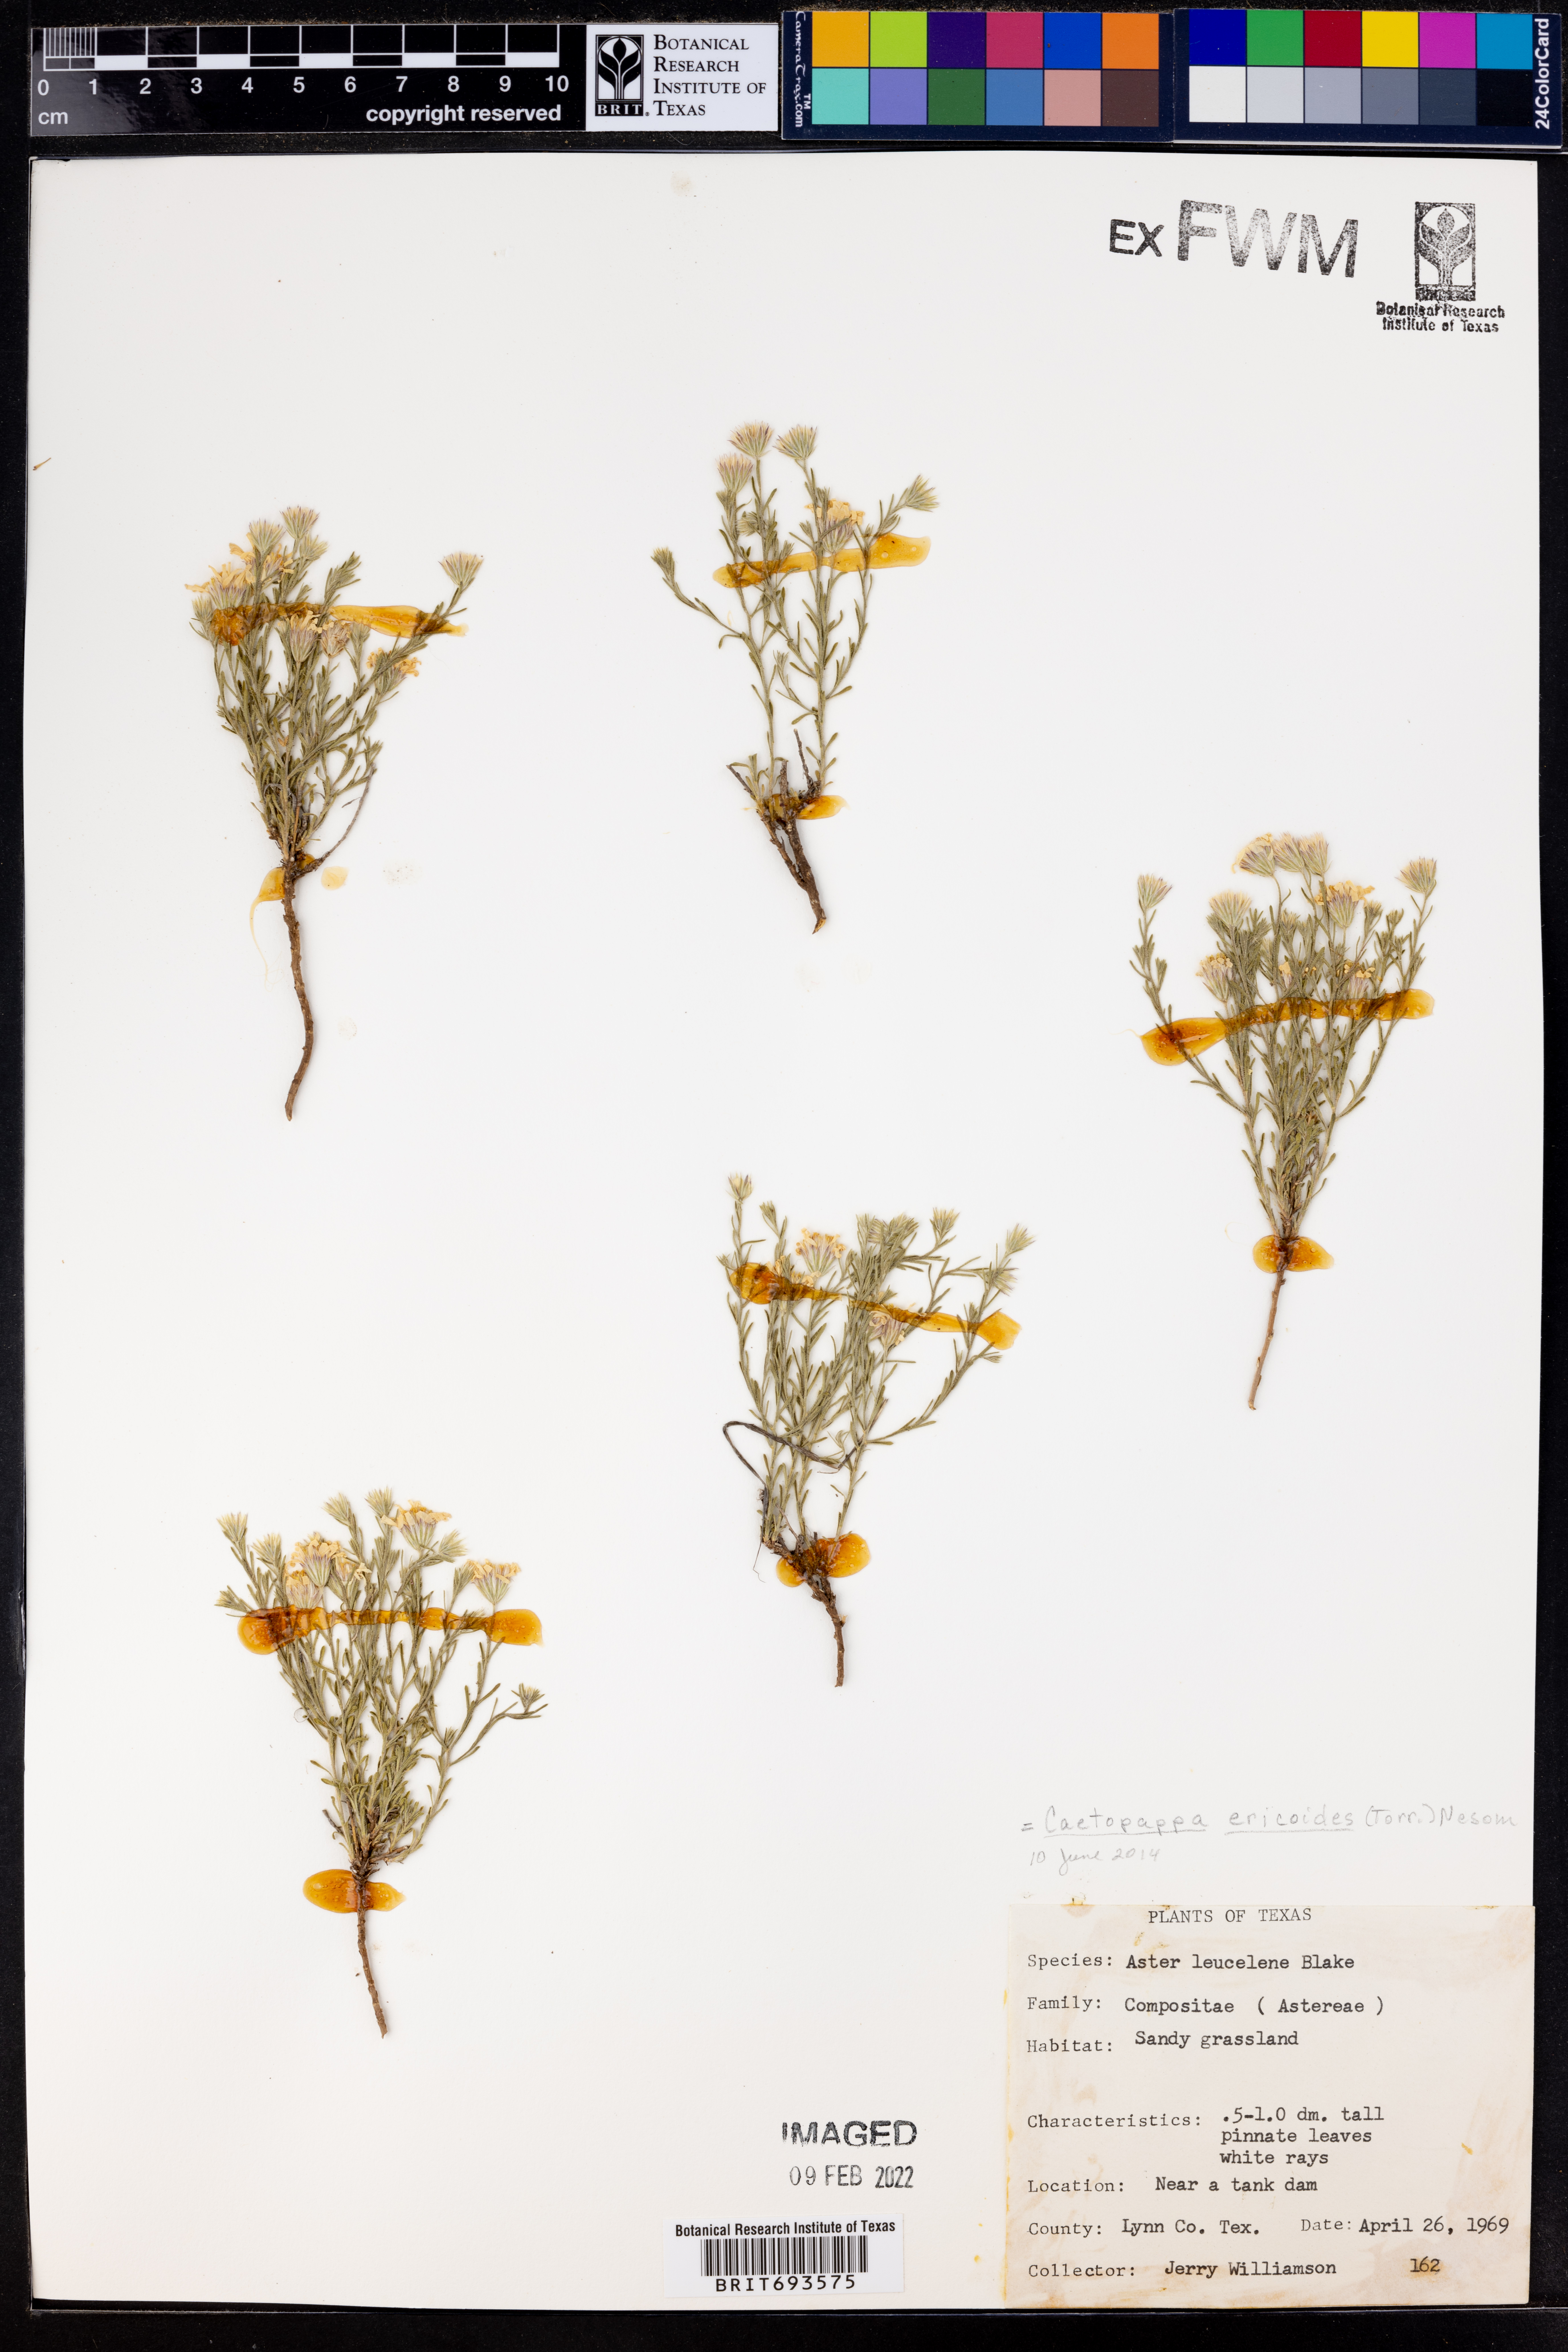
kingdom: Plantae
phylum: Tracheophyta
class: Magnoliopsida
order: Asterales
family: Asteraceae
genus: Chaetopappa
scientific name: Chaetopappa ericoides
